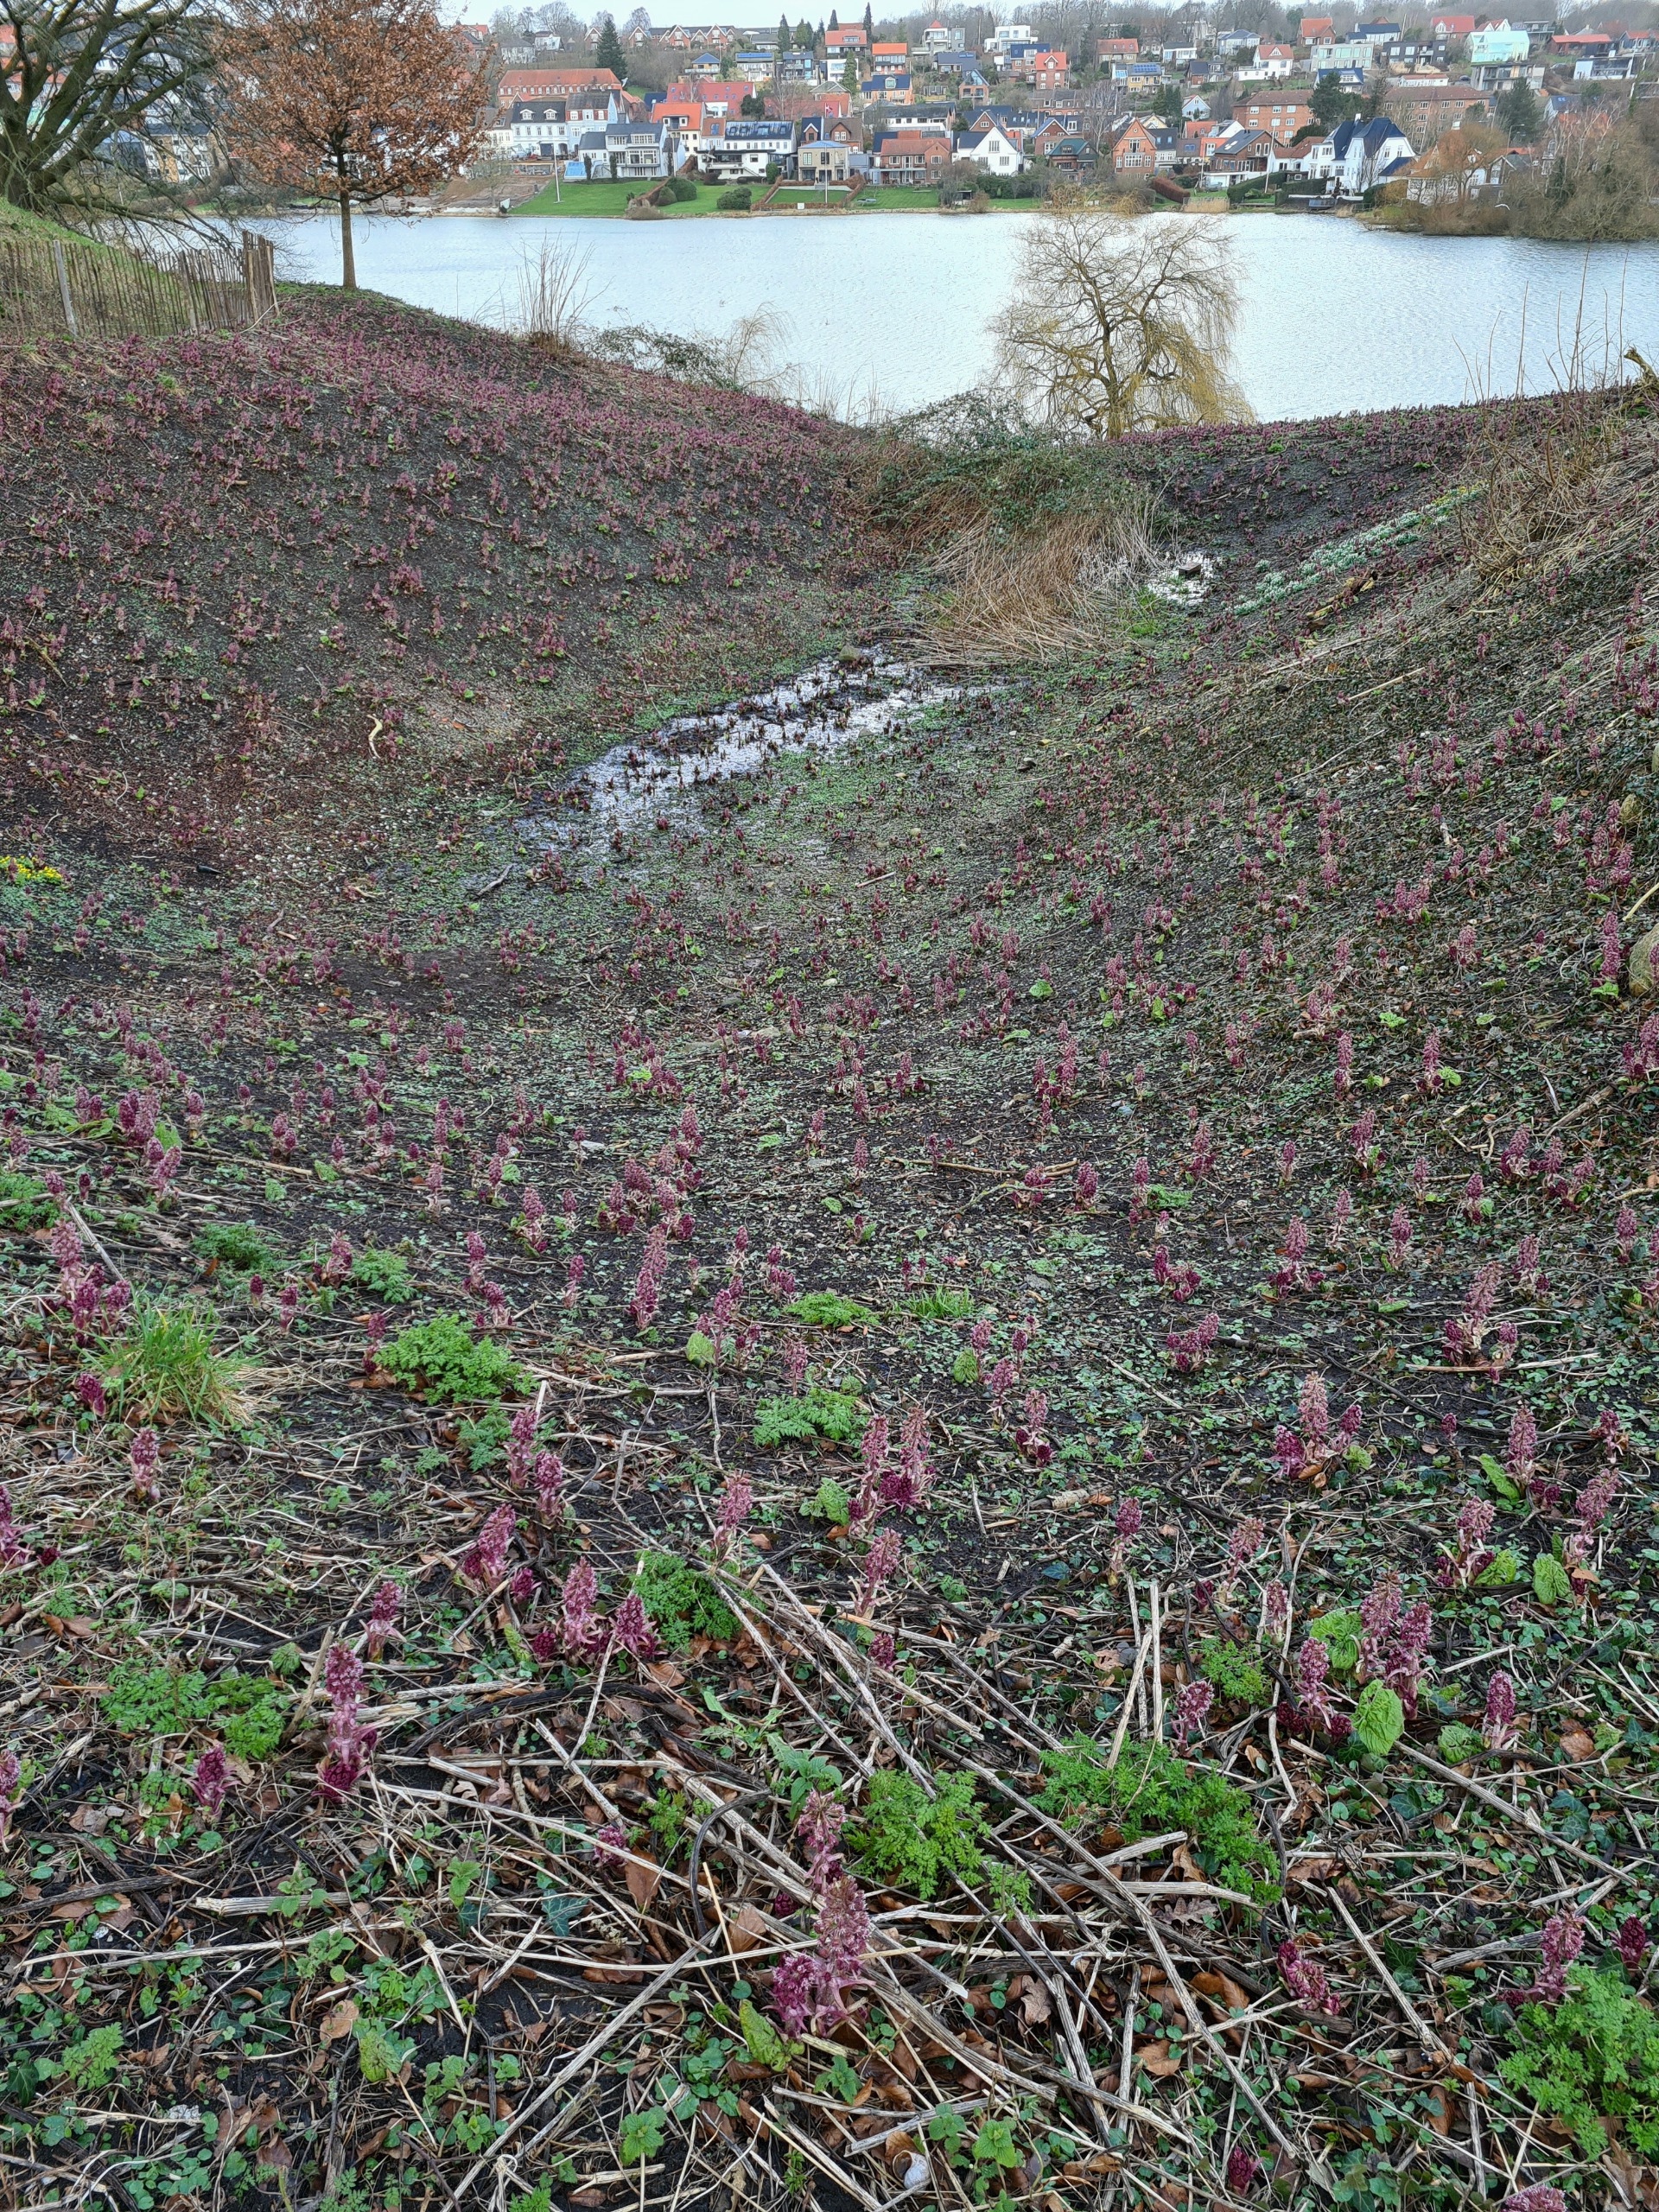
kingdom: Plantae
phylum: Tracheophyta
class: Magnoliopsida
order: Asterales
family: Asteraceae
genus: Petasites
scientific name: Petasites hybridus
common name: Rød hestehov
